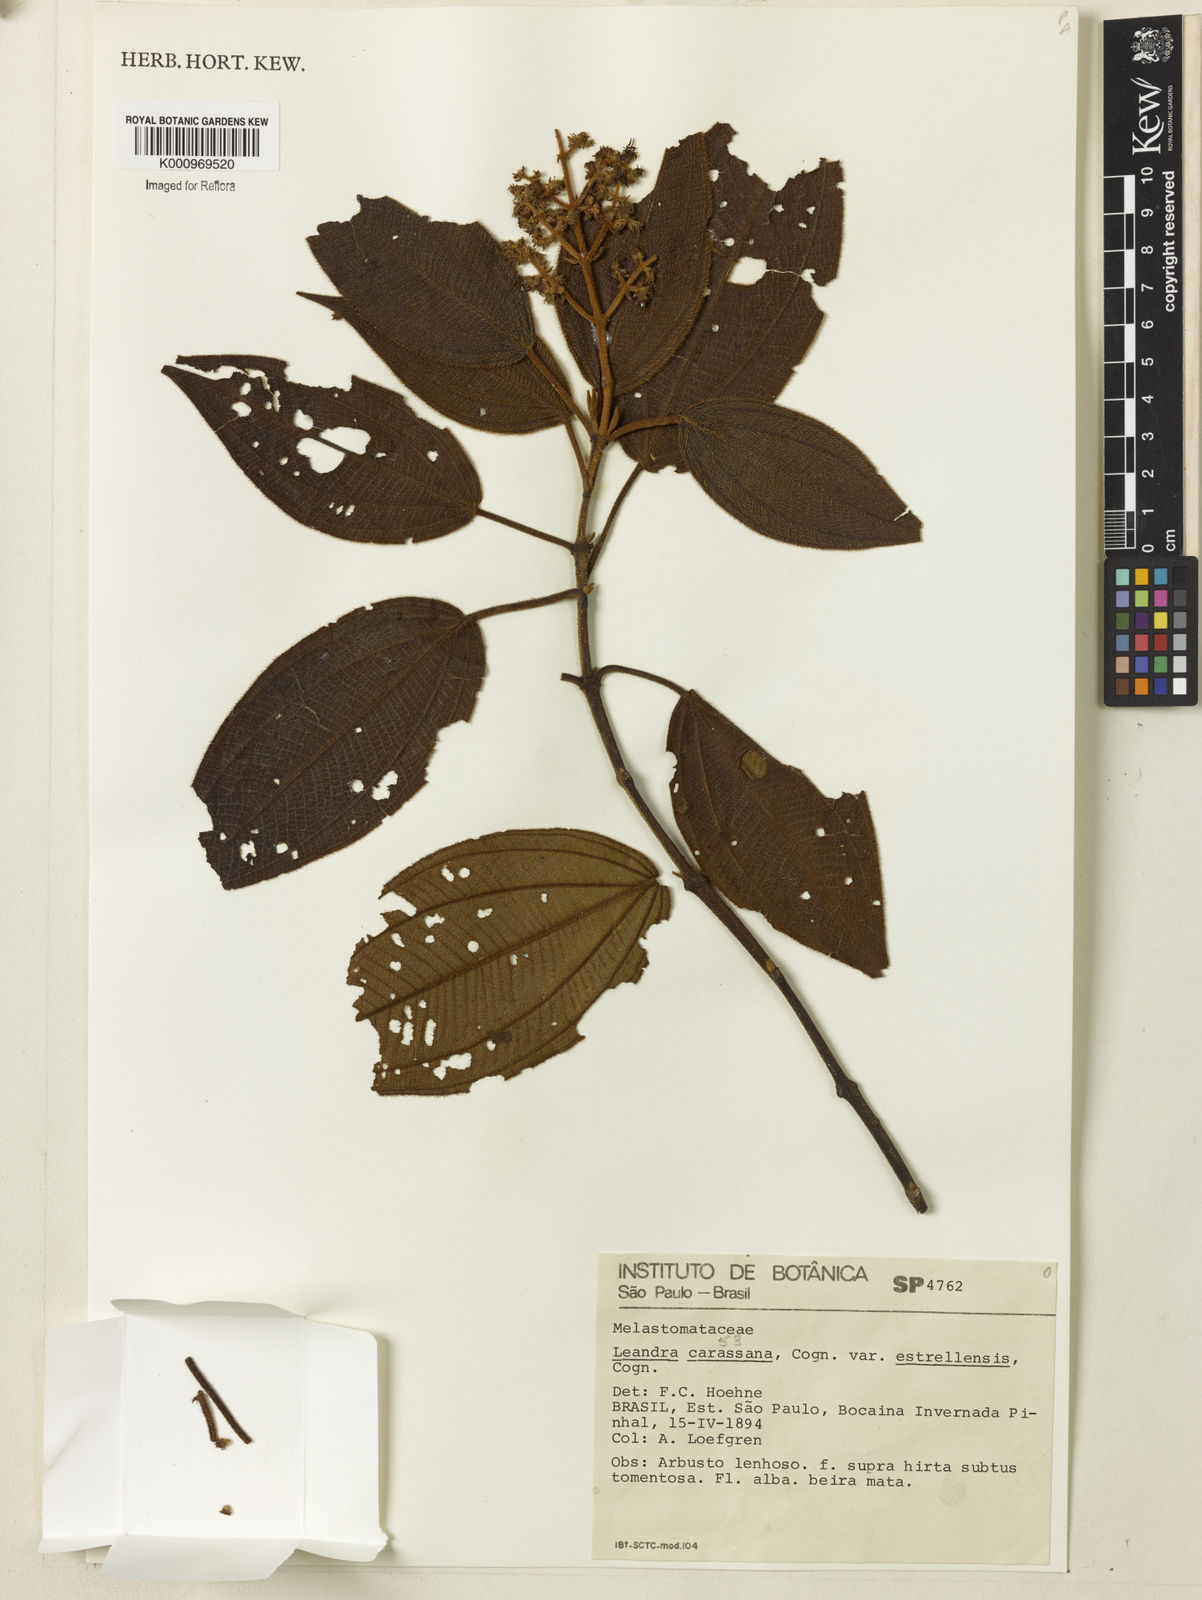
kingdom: Plantae
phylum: Tracheophyta
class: Magnoliopsida
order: Myrtales
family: Melastomataceae
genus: Miconia
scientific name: Miconia sublanata
